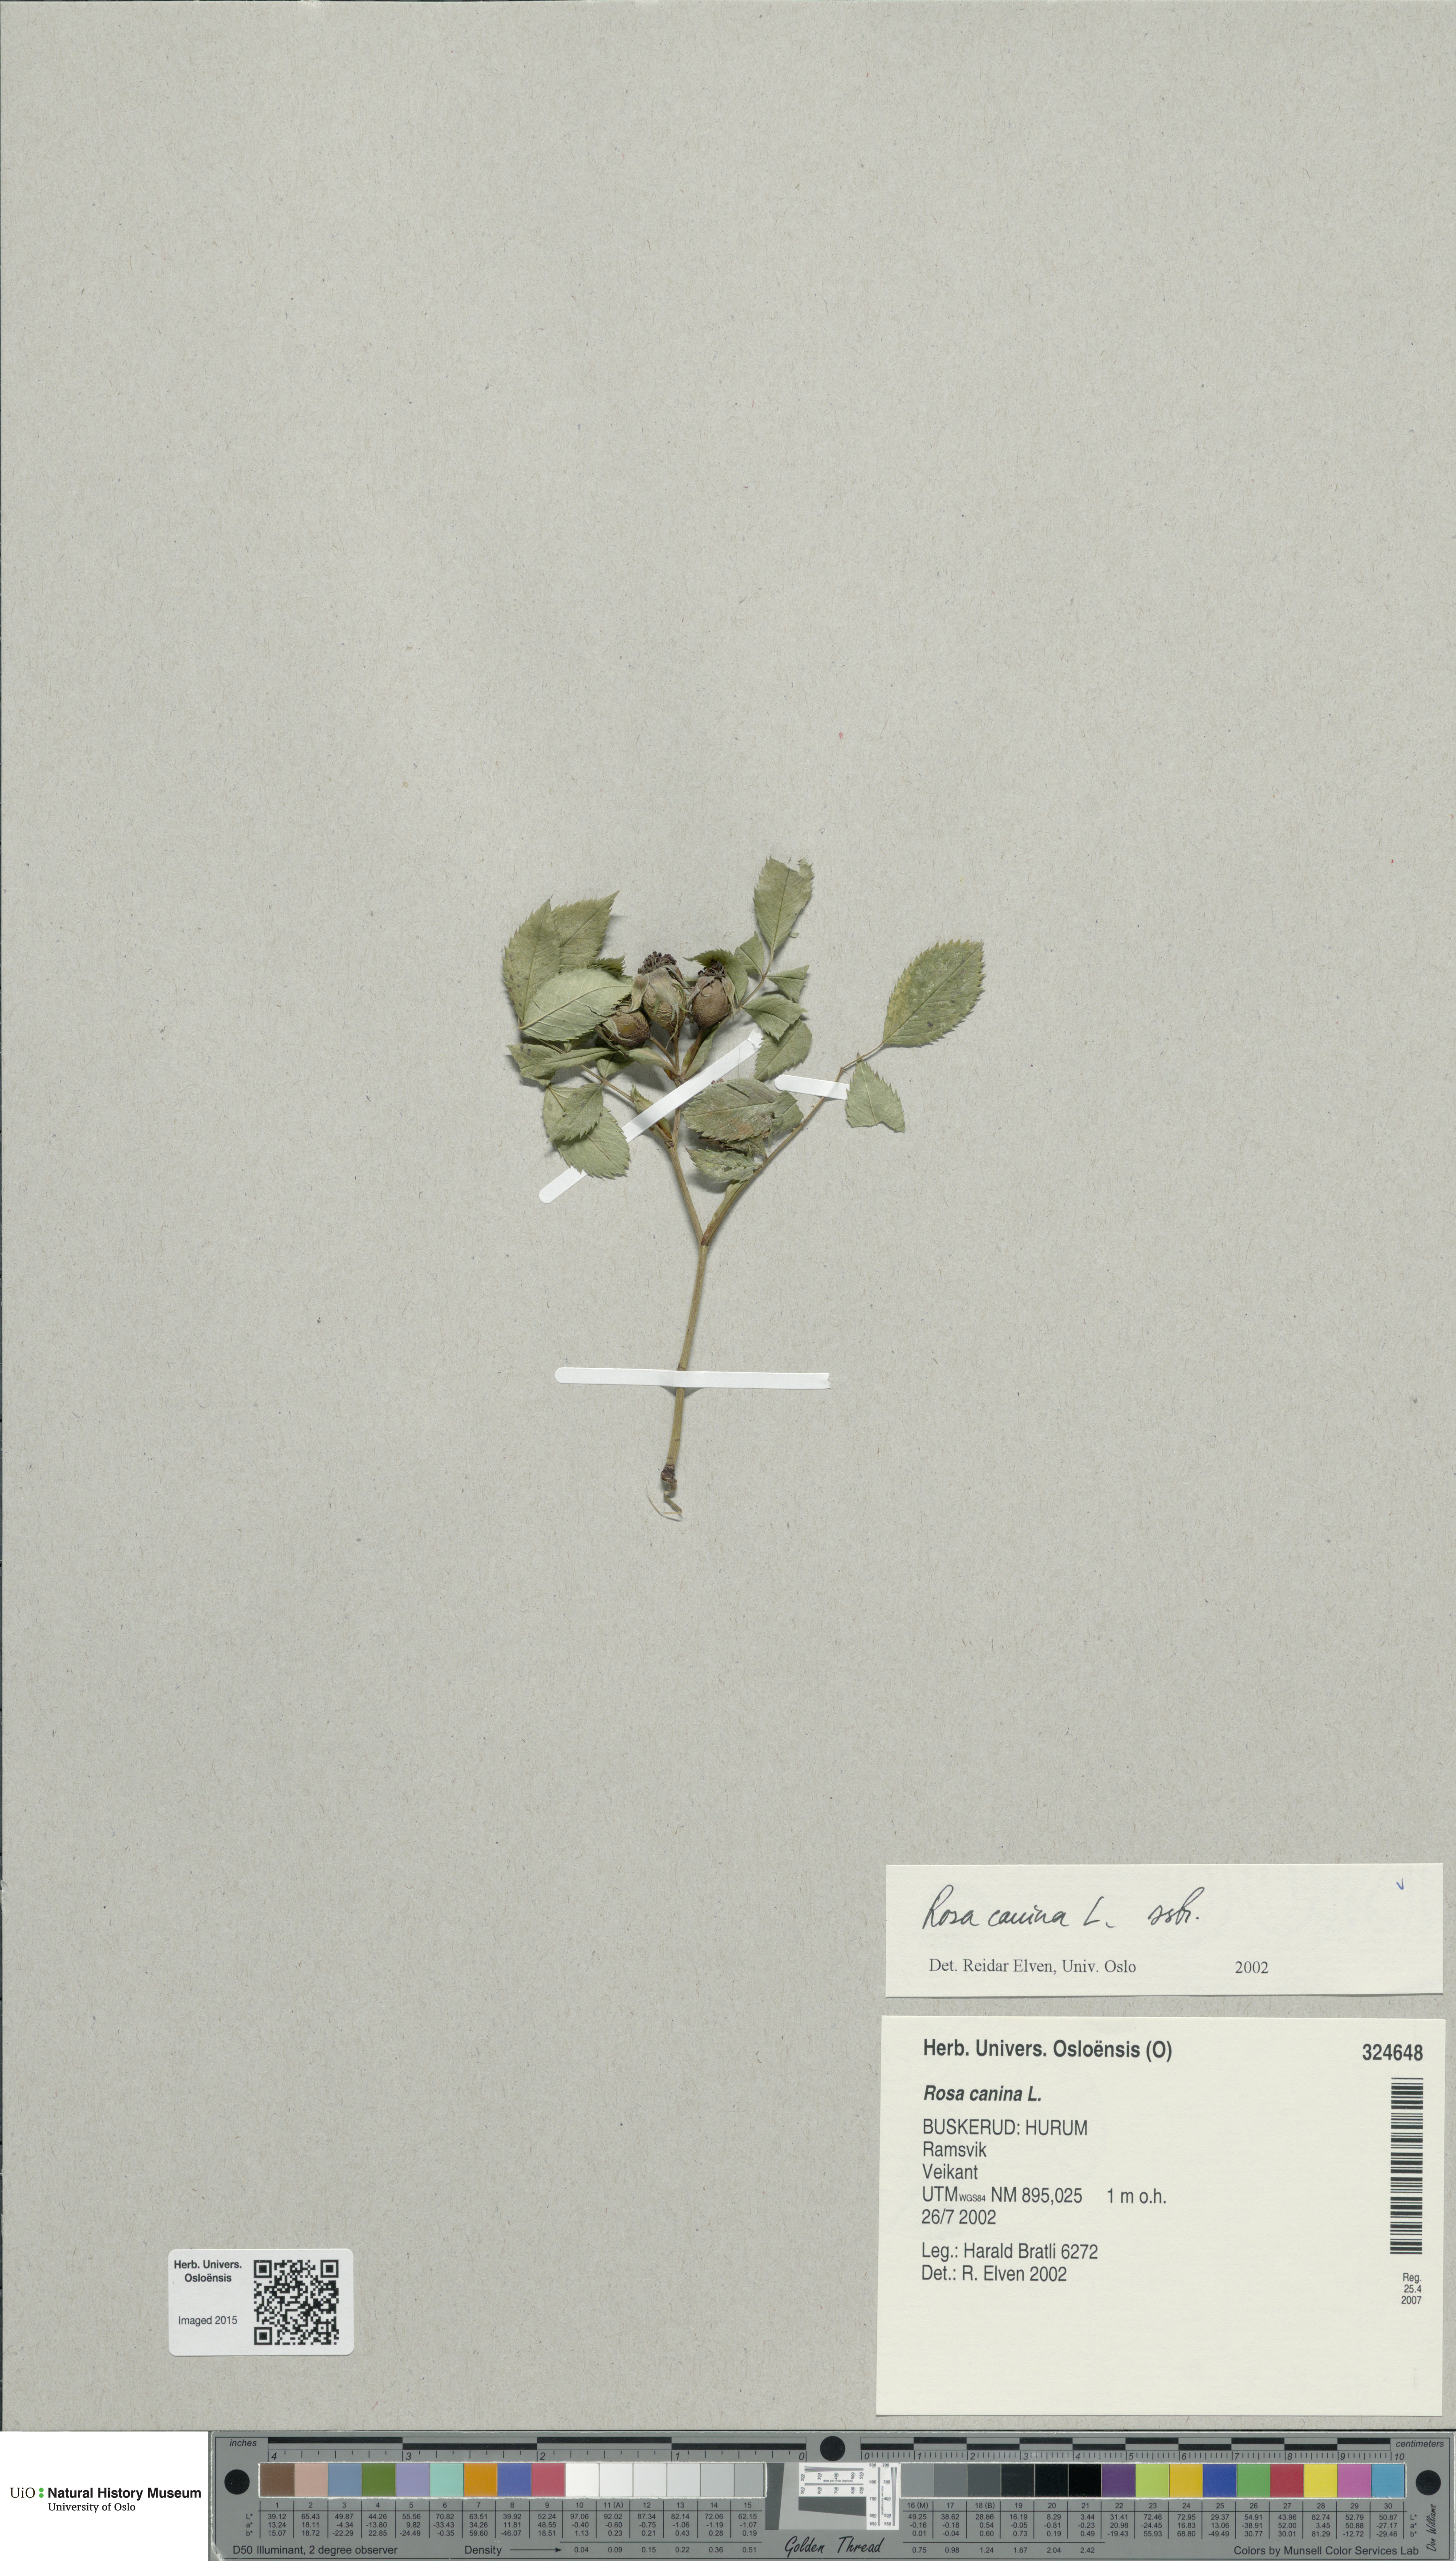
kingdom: Plantae
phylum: Tracheophyta
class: Magnoliopsida
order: Rosales
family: Rosaceae
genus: Rosa
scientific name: Rosa canina
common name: Dog rose
